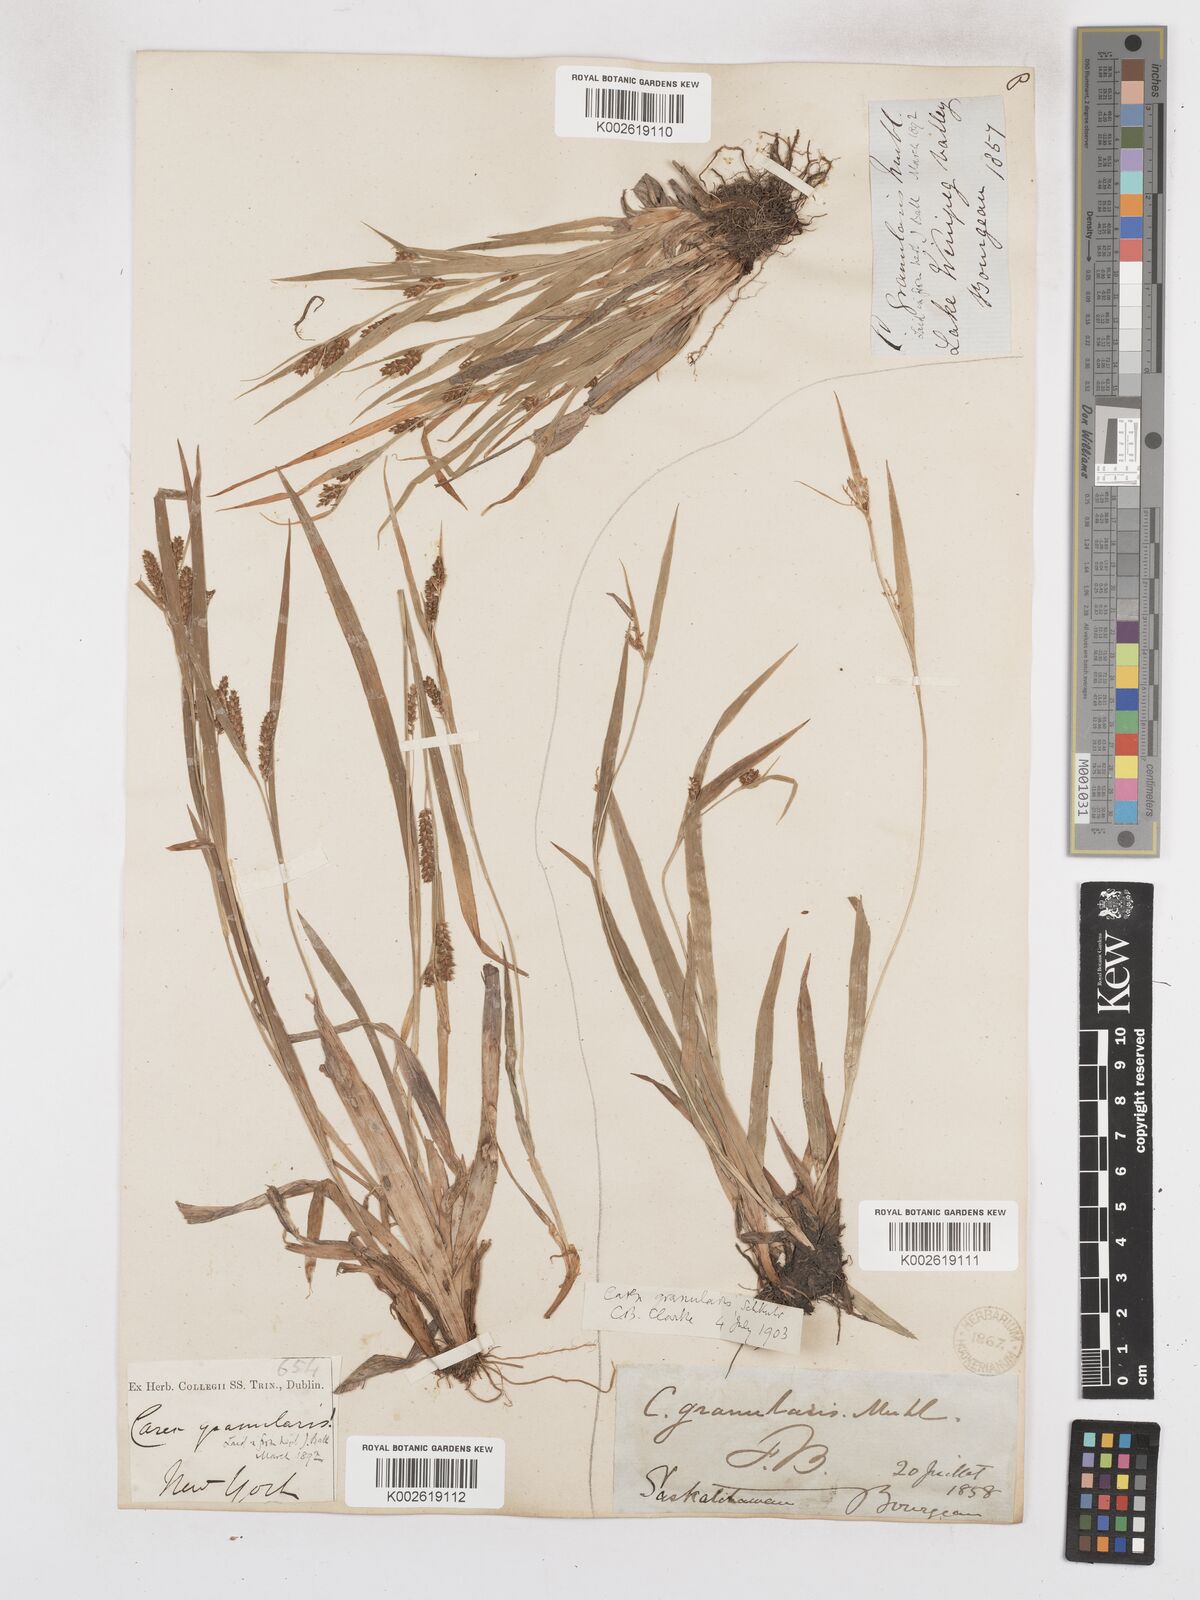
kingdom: Plantae
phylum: Tracheophyta
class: Liliopsida
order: Poales
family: Cyperaceae
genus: Carex
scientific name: Carex granularis
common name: Granular sedge
